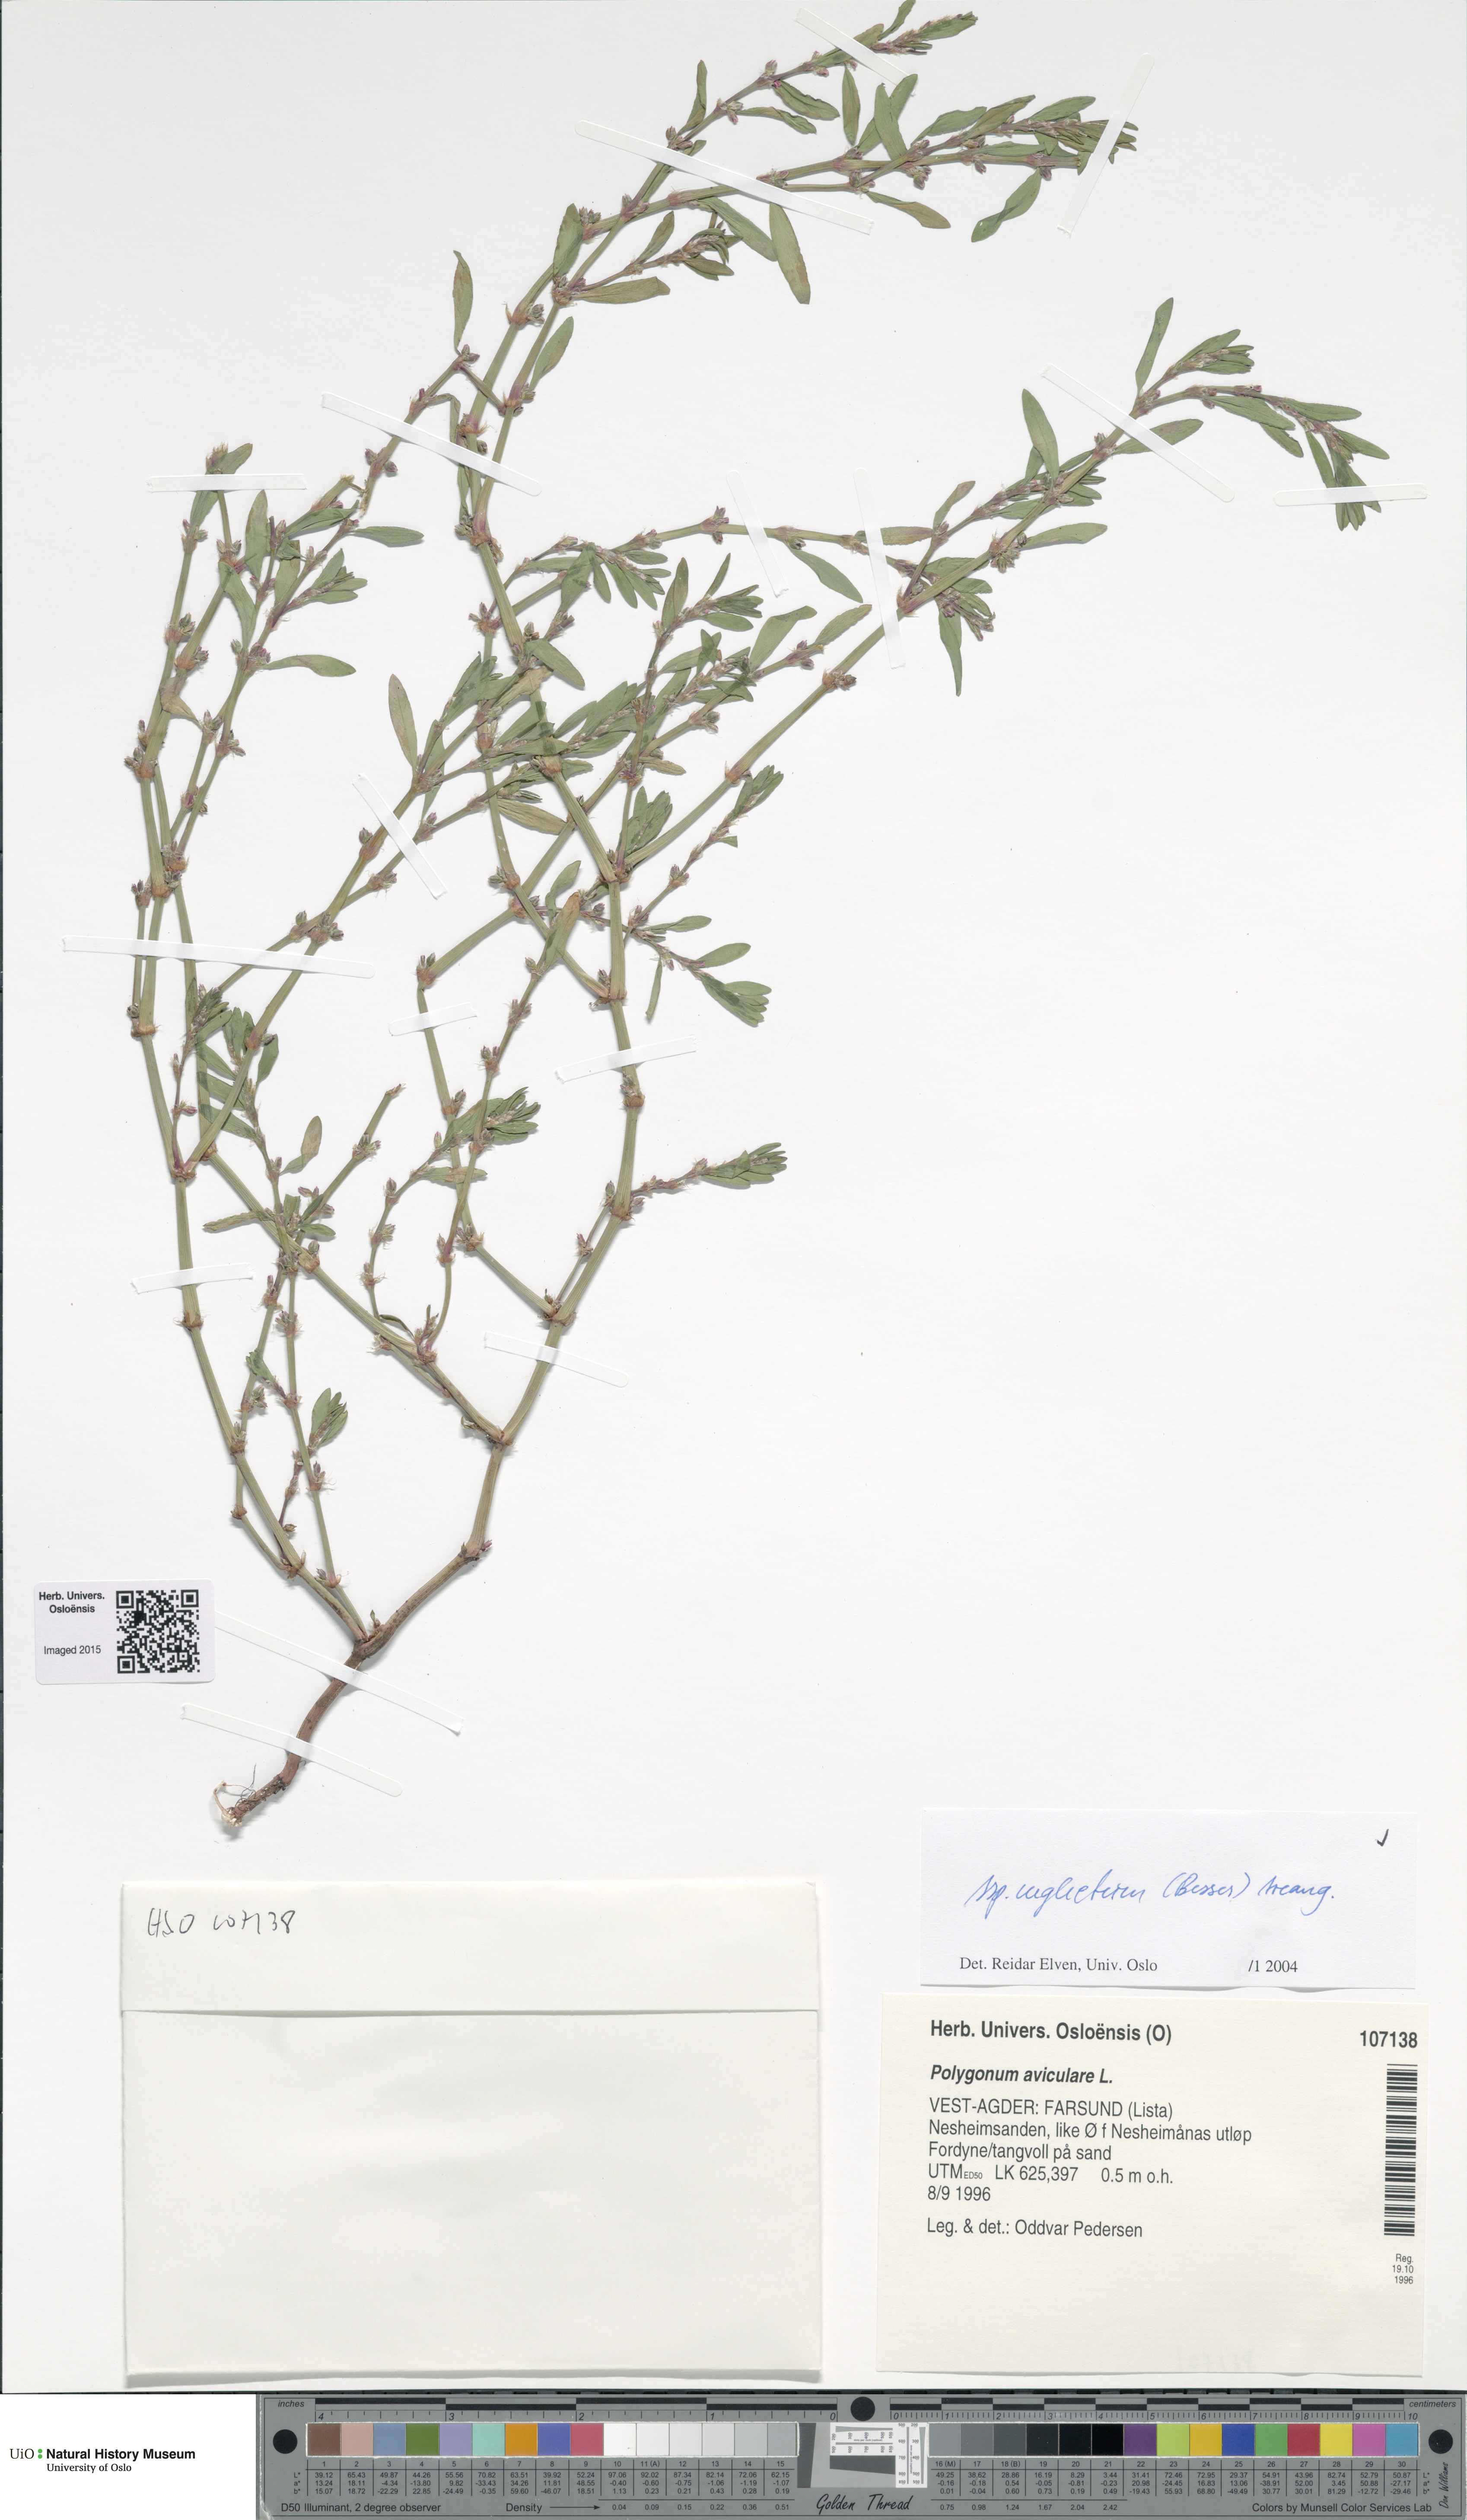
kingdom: Plantae
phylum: Tracheophyta
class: Magnoliopsida
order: Caryophyllales
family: Polygonaceae
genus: Polygonum
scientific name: Polygonum aviculare
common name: Prostrate knotweed
